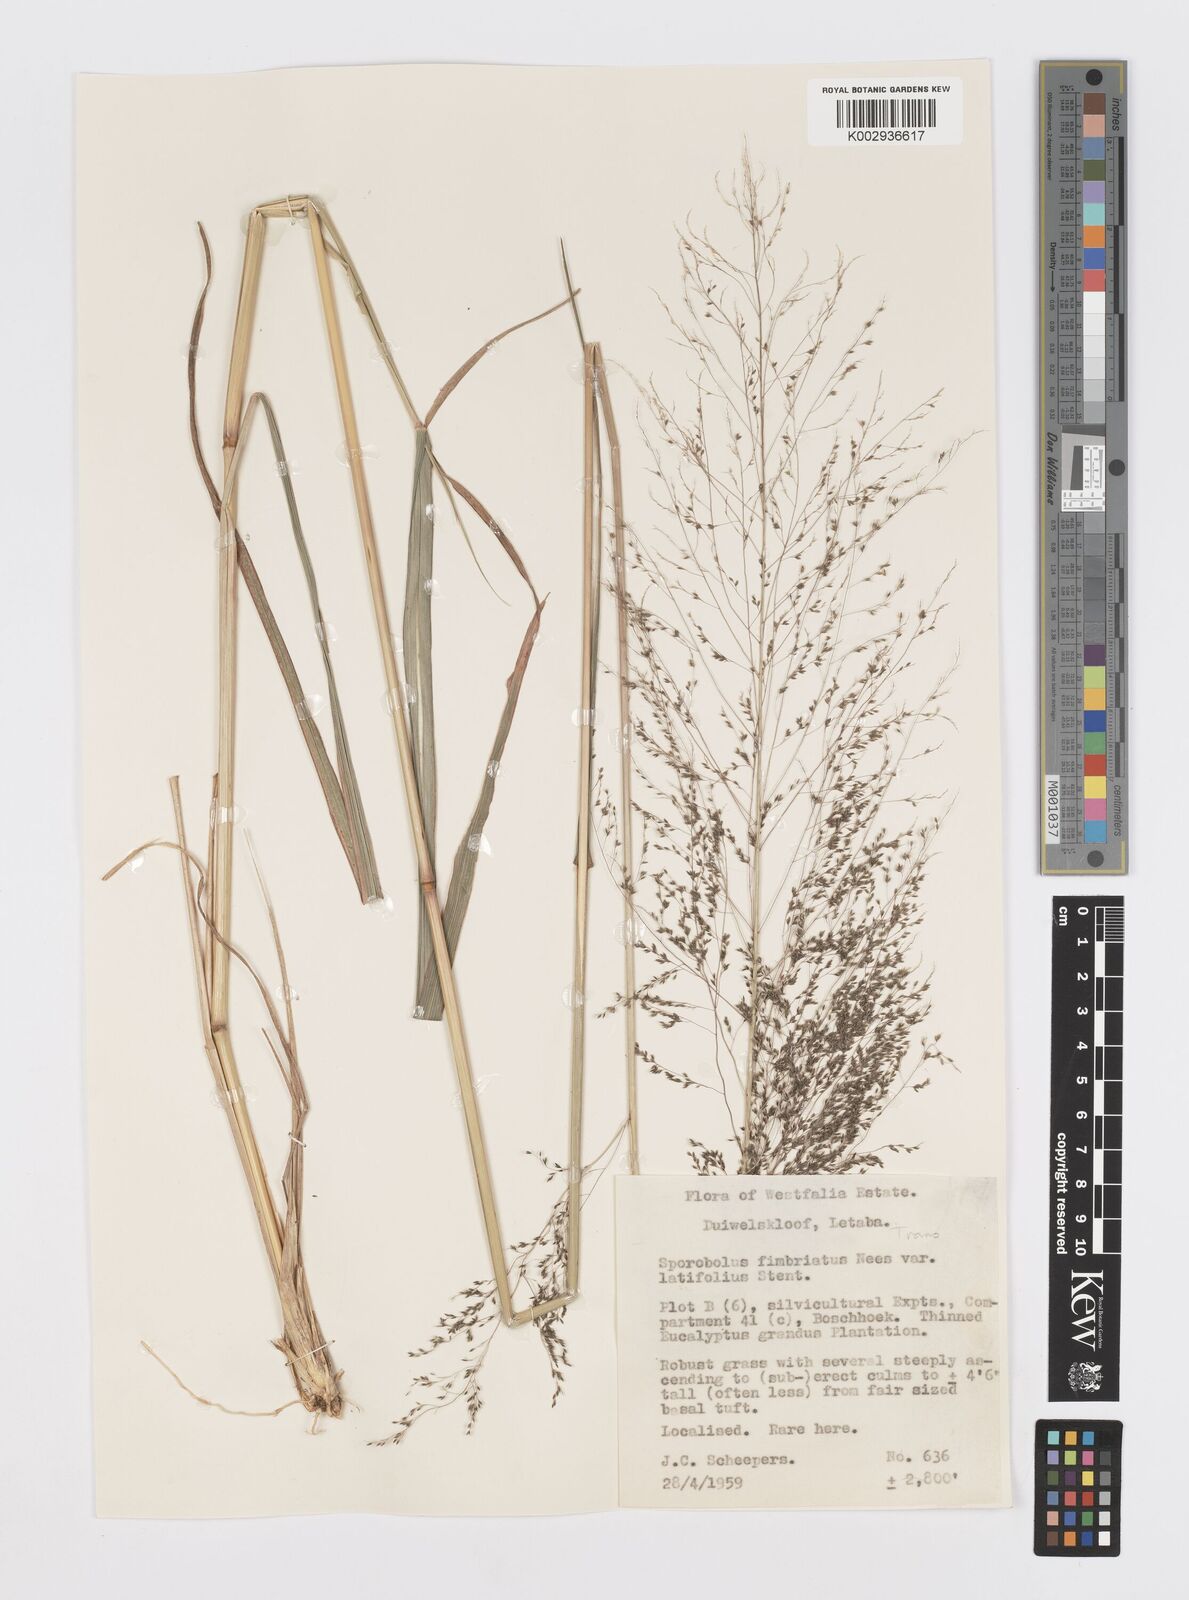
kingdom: Plantae
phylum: Tracheophyta
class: Liliopsida
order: Poales
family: Poaceae
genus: Sporobolus
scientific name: Sporobolus fimbriatus
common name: Fringed dropseed
